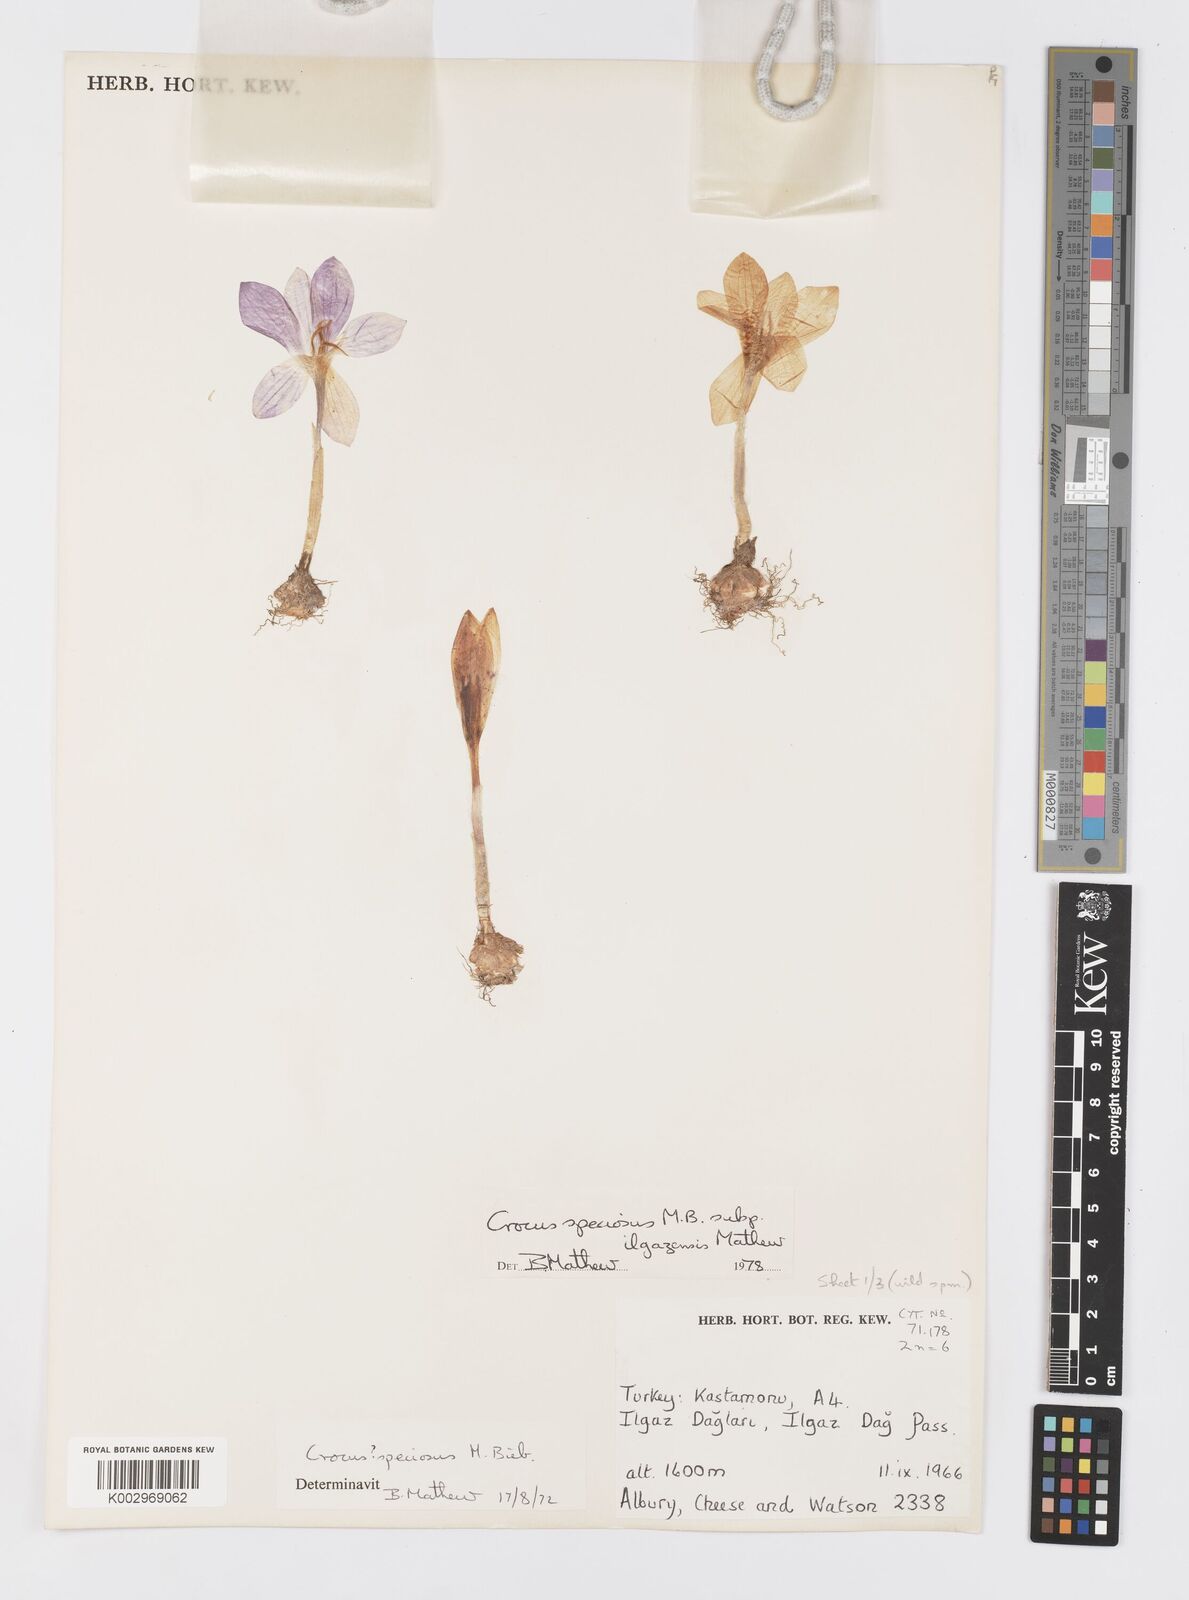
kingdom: Plantae
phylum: Tracheophyta
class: Liliopsida
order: Asparagales
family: Iridaceae
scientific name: Iridaceae
